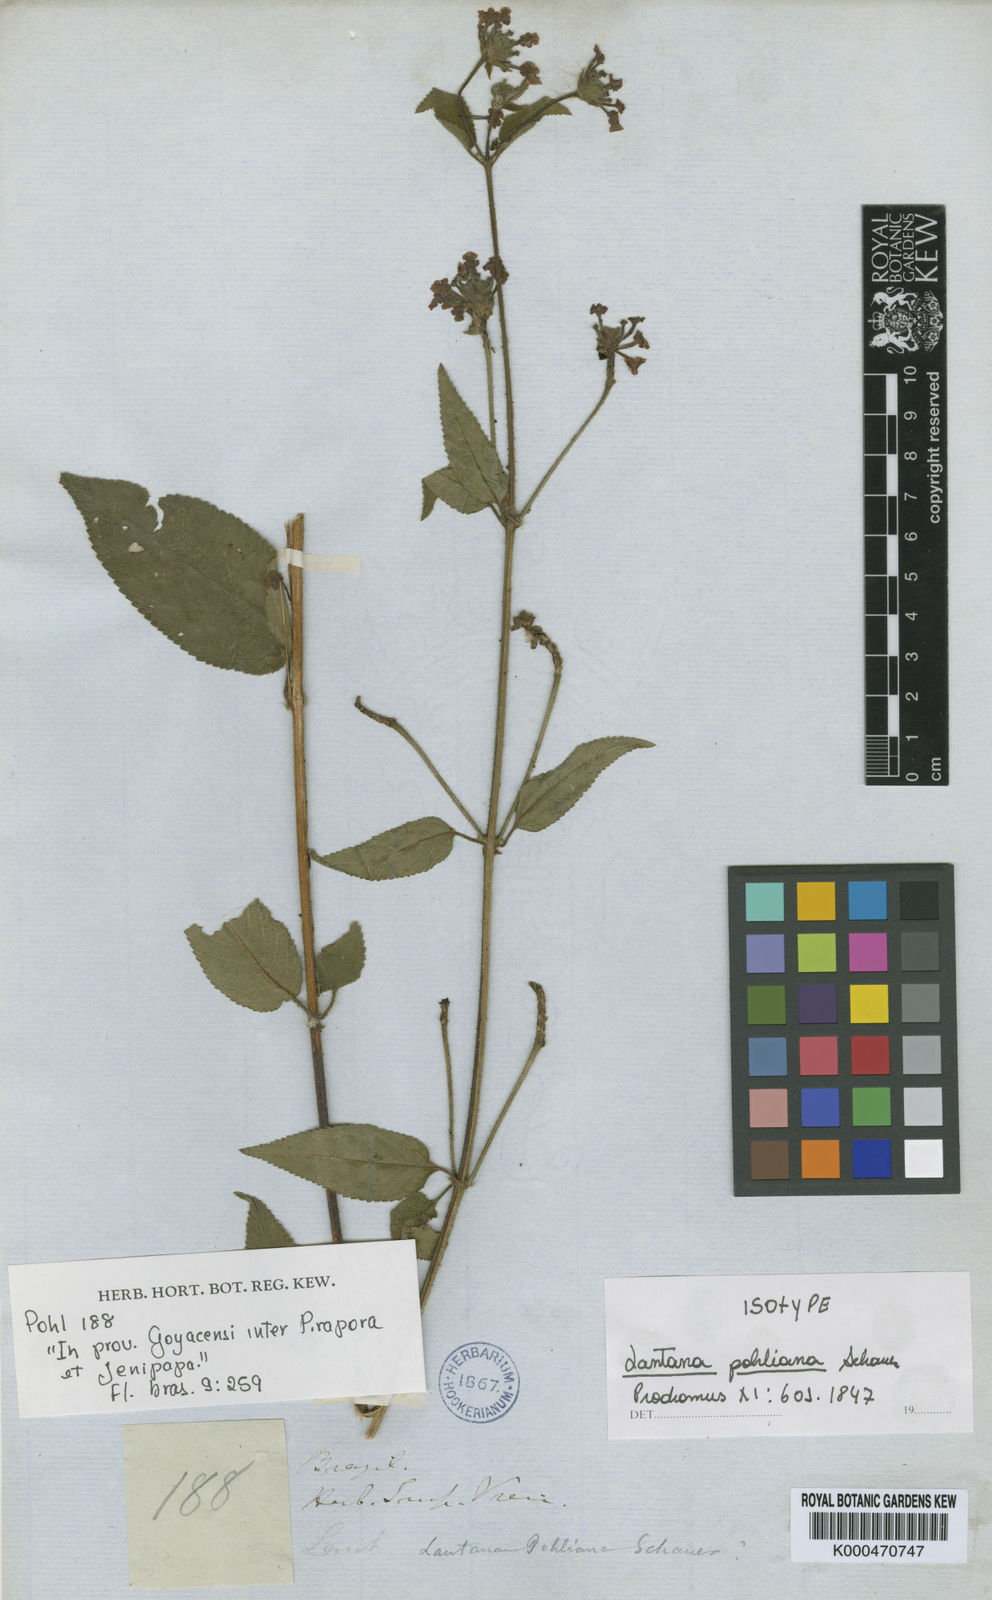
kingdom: Plantae
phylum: Tracheophyta
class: Magnoliopsida
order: Lamiales
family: Verbenaceae
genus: Lantana
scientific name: Lantana pohliana
